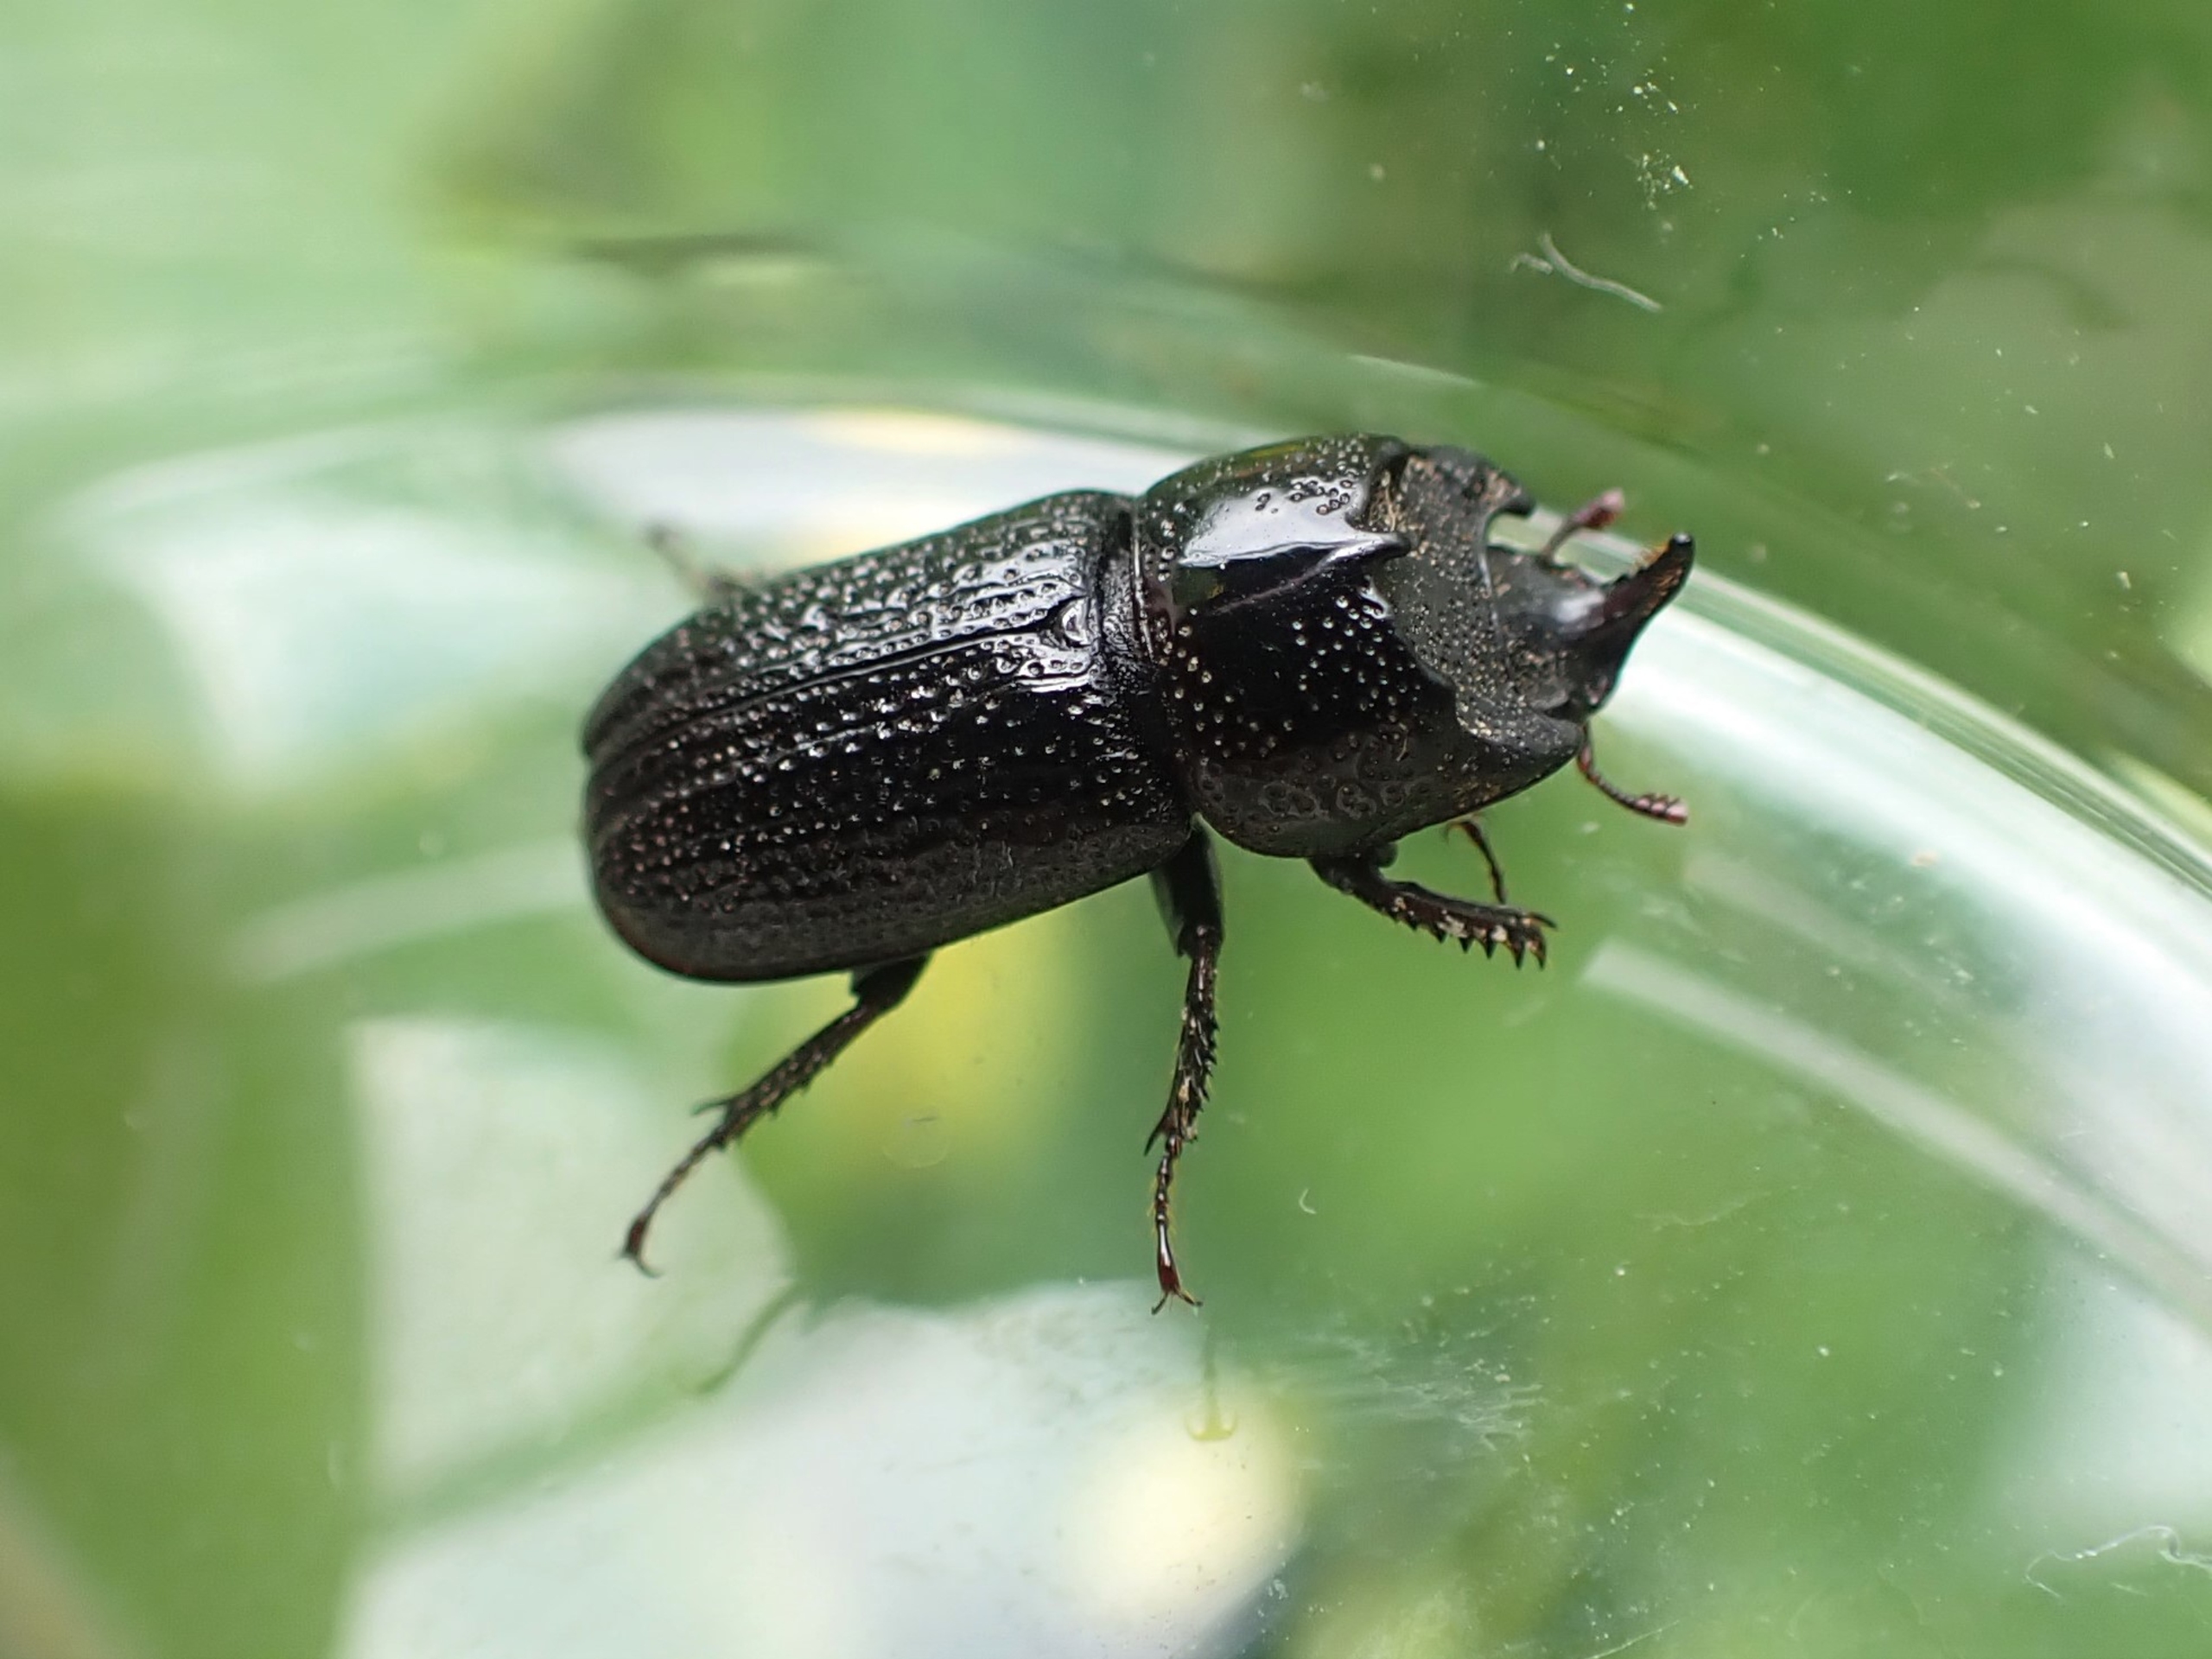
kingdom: Animalia
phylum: Arthropoda
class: Insecta
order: Coleoptera
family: Lucanidae
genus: Sinodendron
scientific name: Sinodendron cylindricum
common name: Valsehjort
